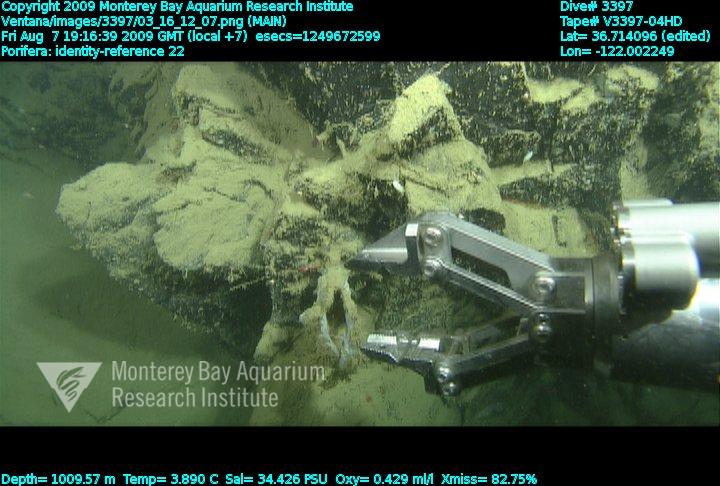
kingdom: Animalia
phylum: Porifera
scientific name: Porifera
